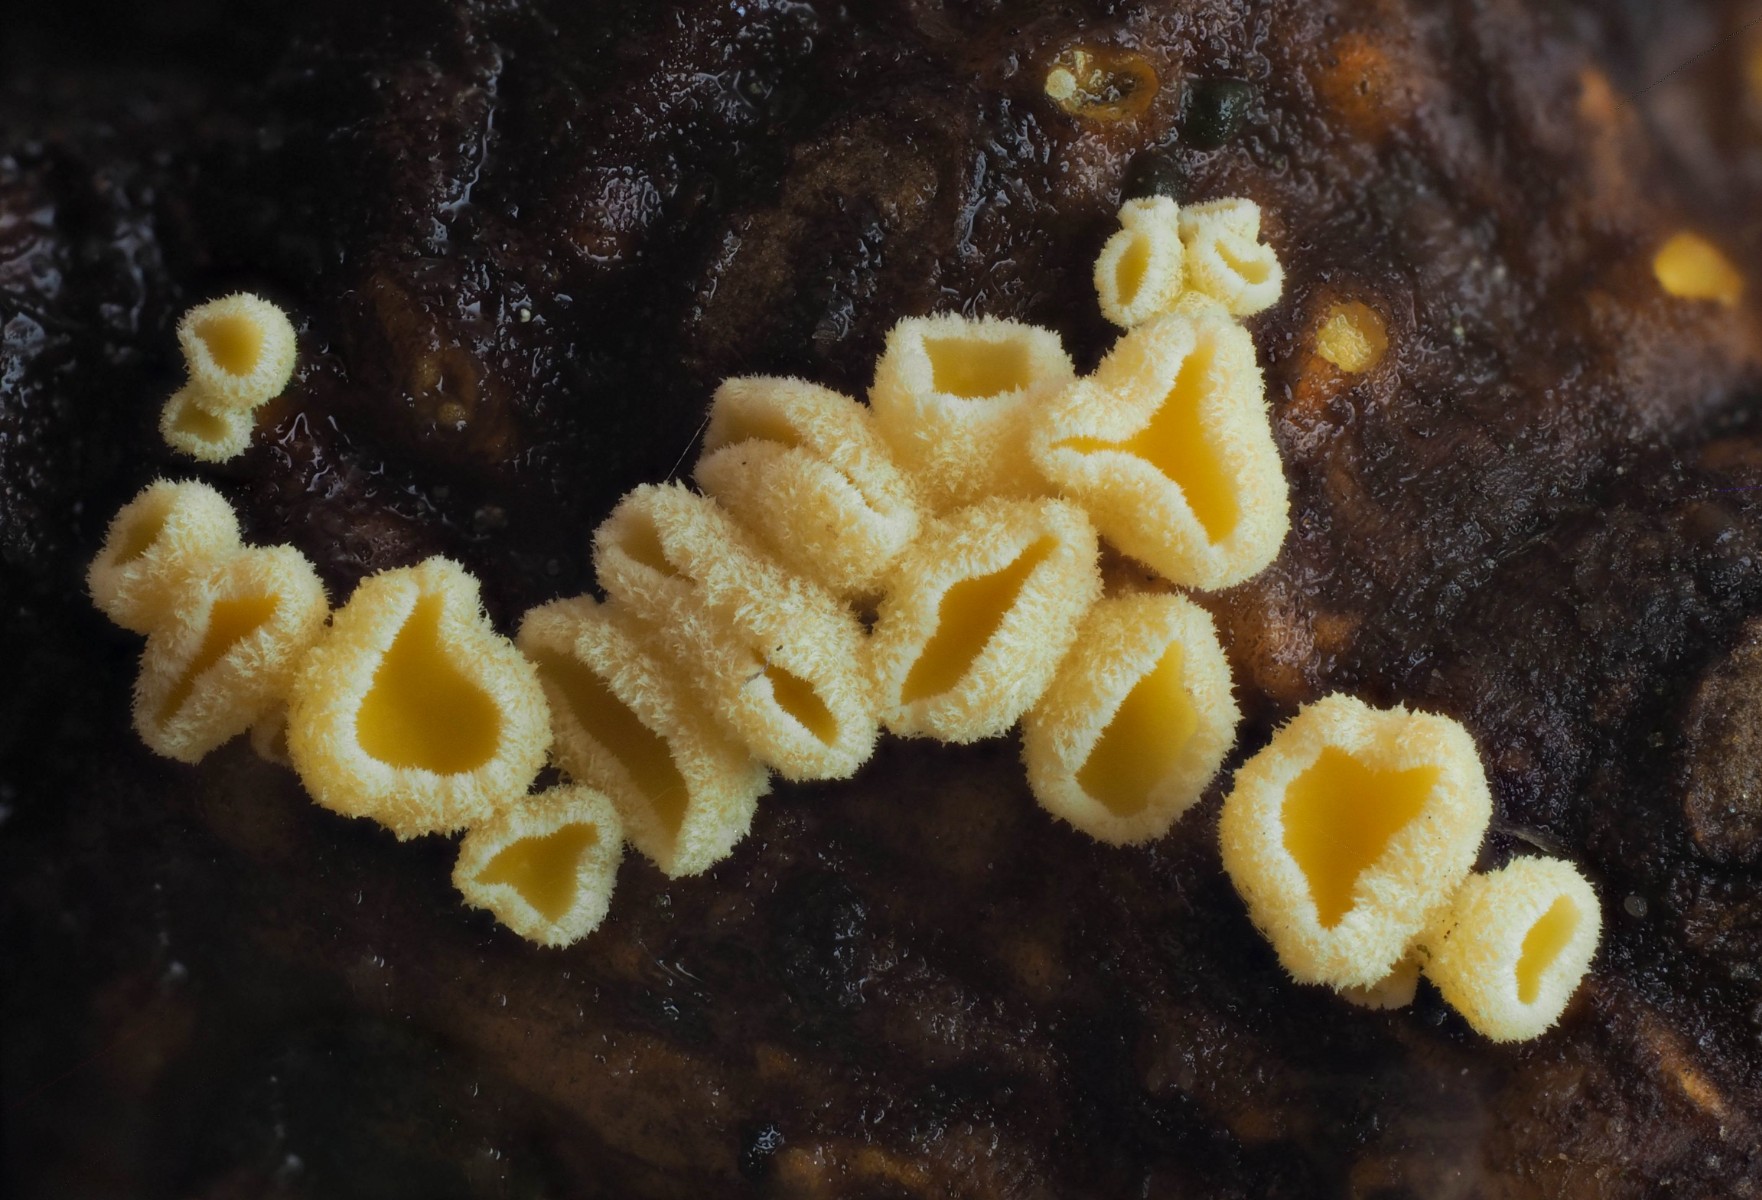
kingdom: Fungi
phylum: Ascomycota
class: Leotiomycetes
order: Helotiales
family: Lachnaceae
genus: Lachnellula
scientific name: Lachnellula subtilissima
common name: gran-frynseskive
